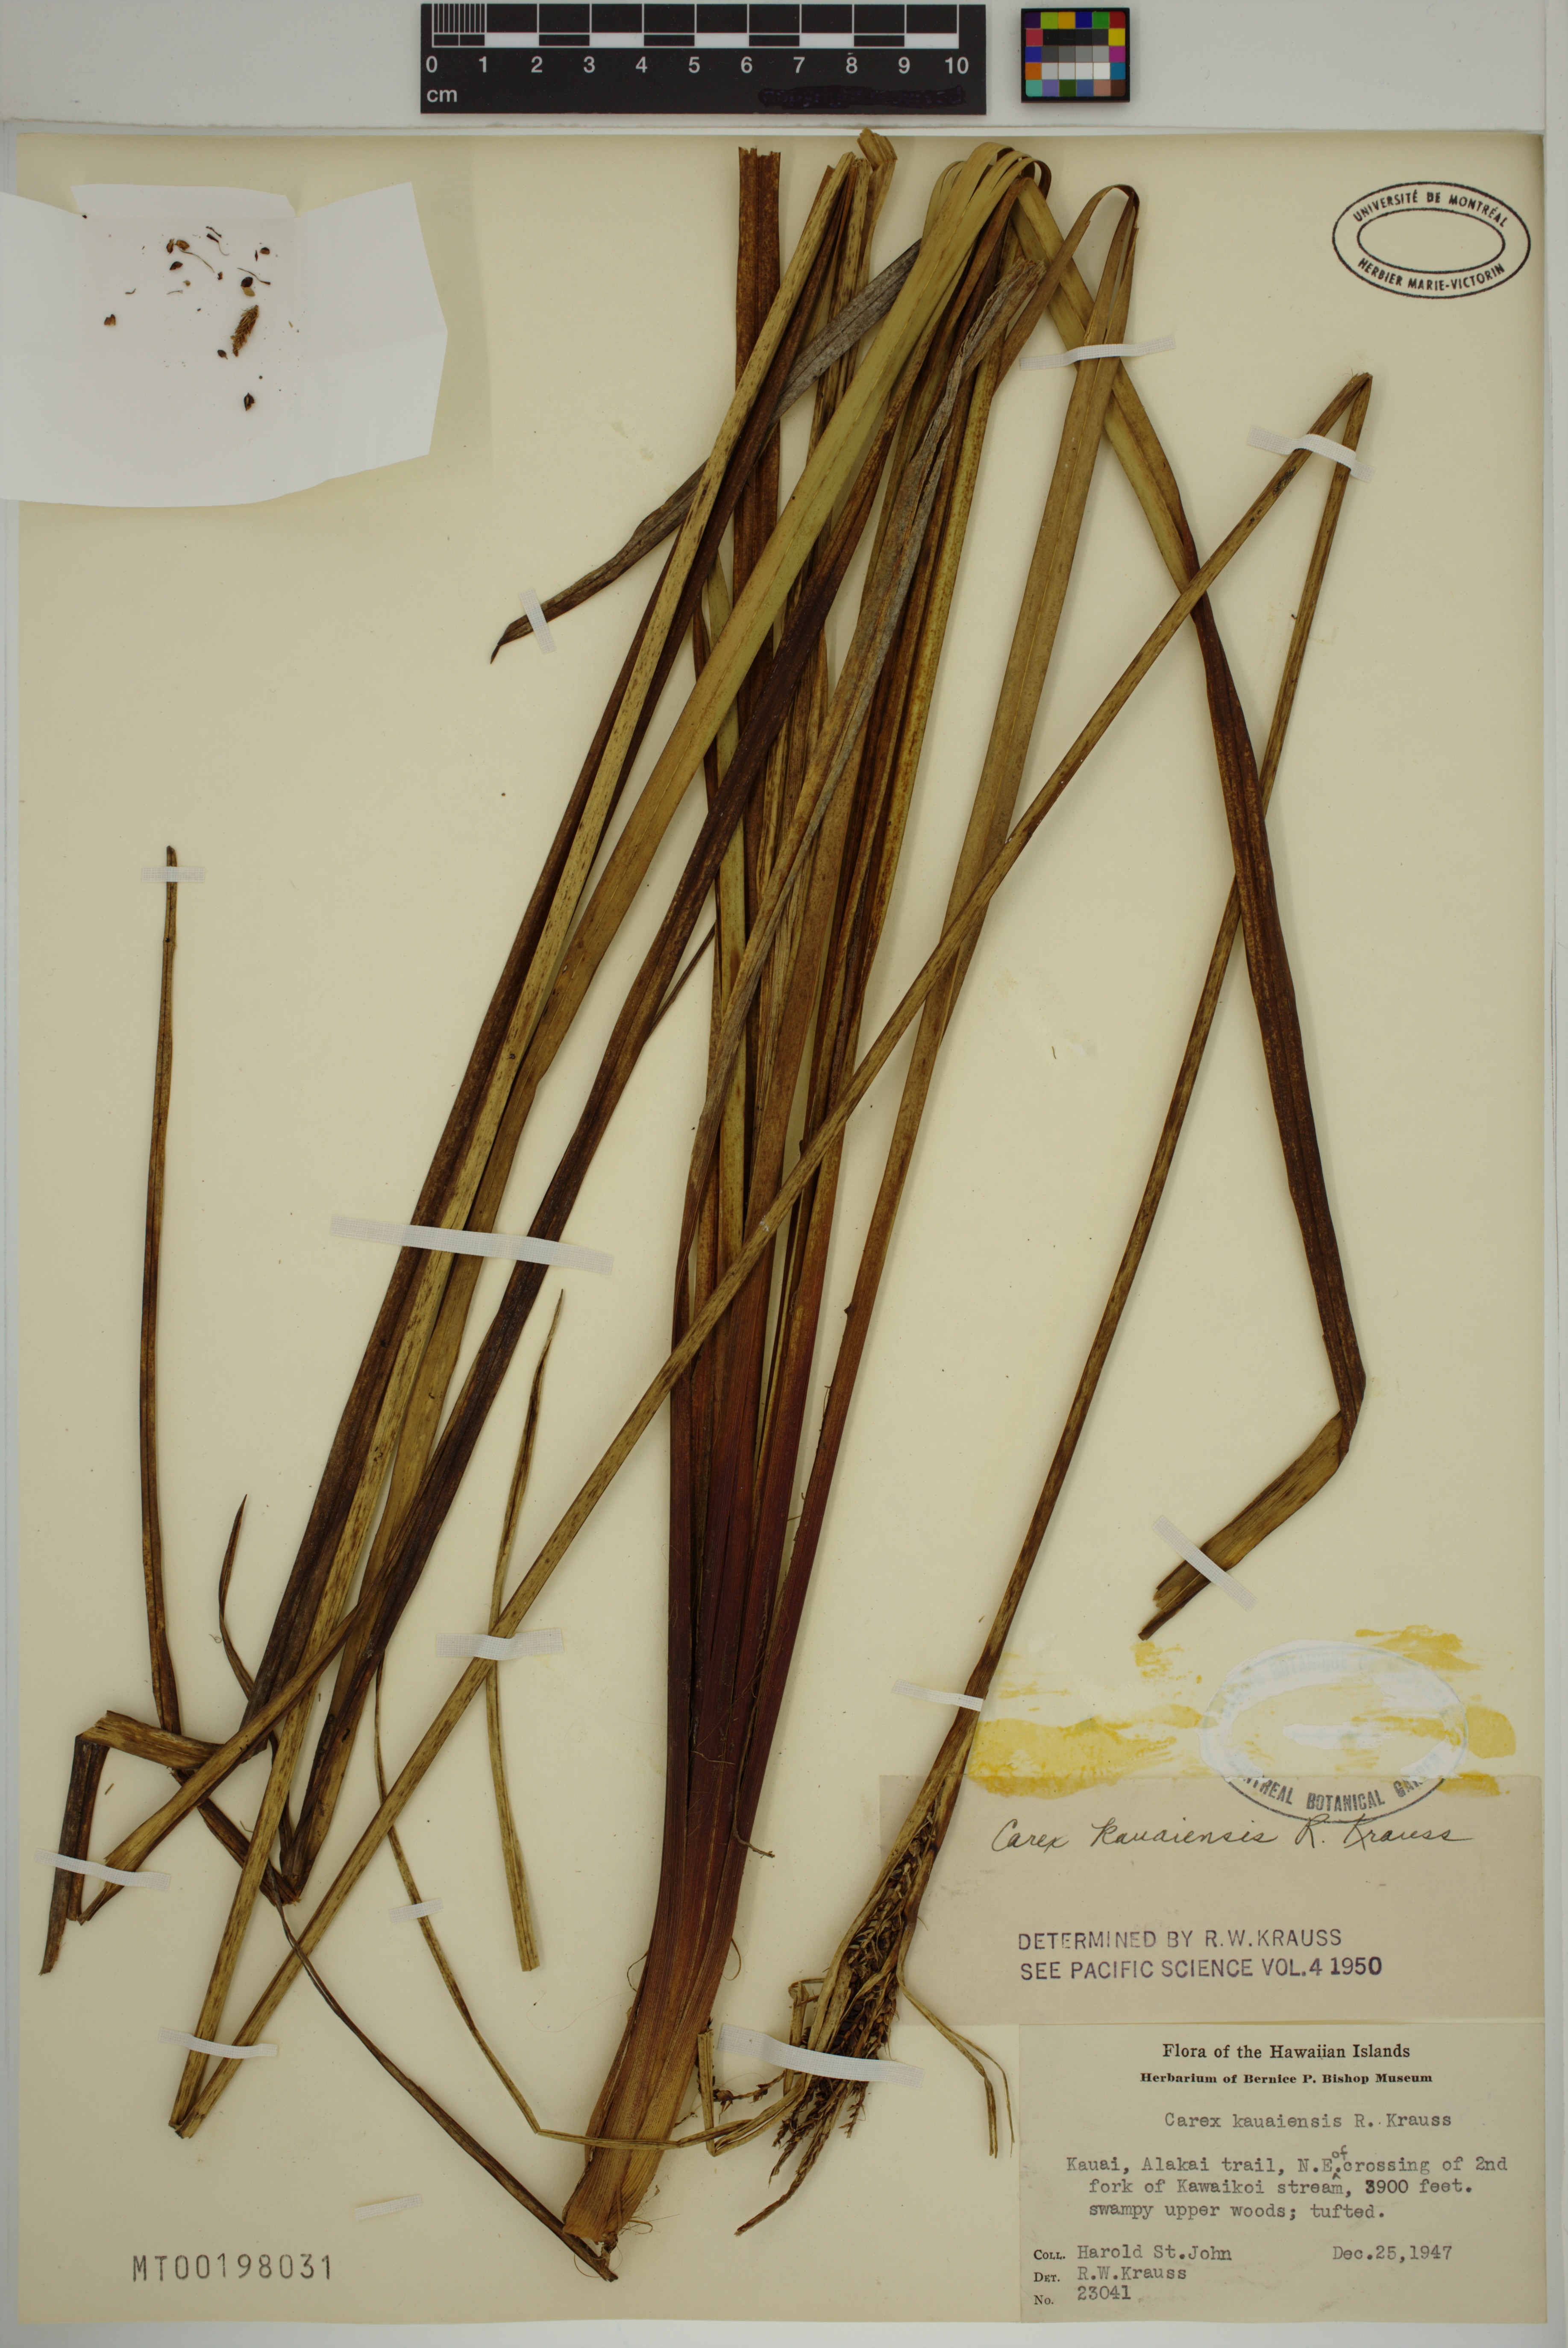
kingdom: Plantae
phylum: Tracheophyta
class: Liliopsida
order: Poales
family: Cyperaceae
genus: Carex
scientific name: Carex kauaiensis
